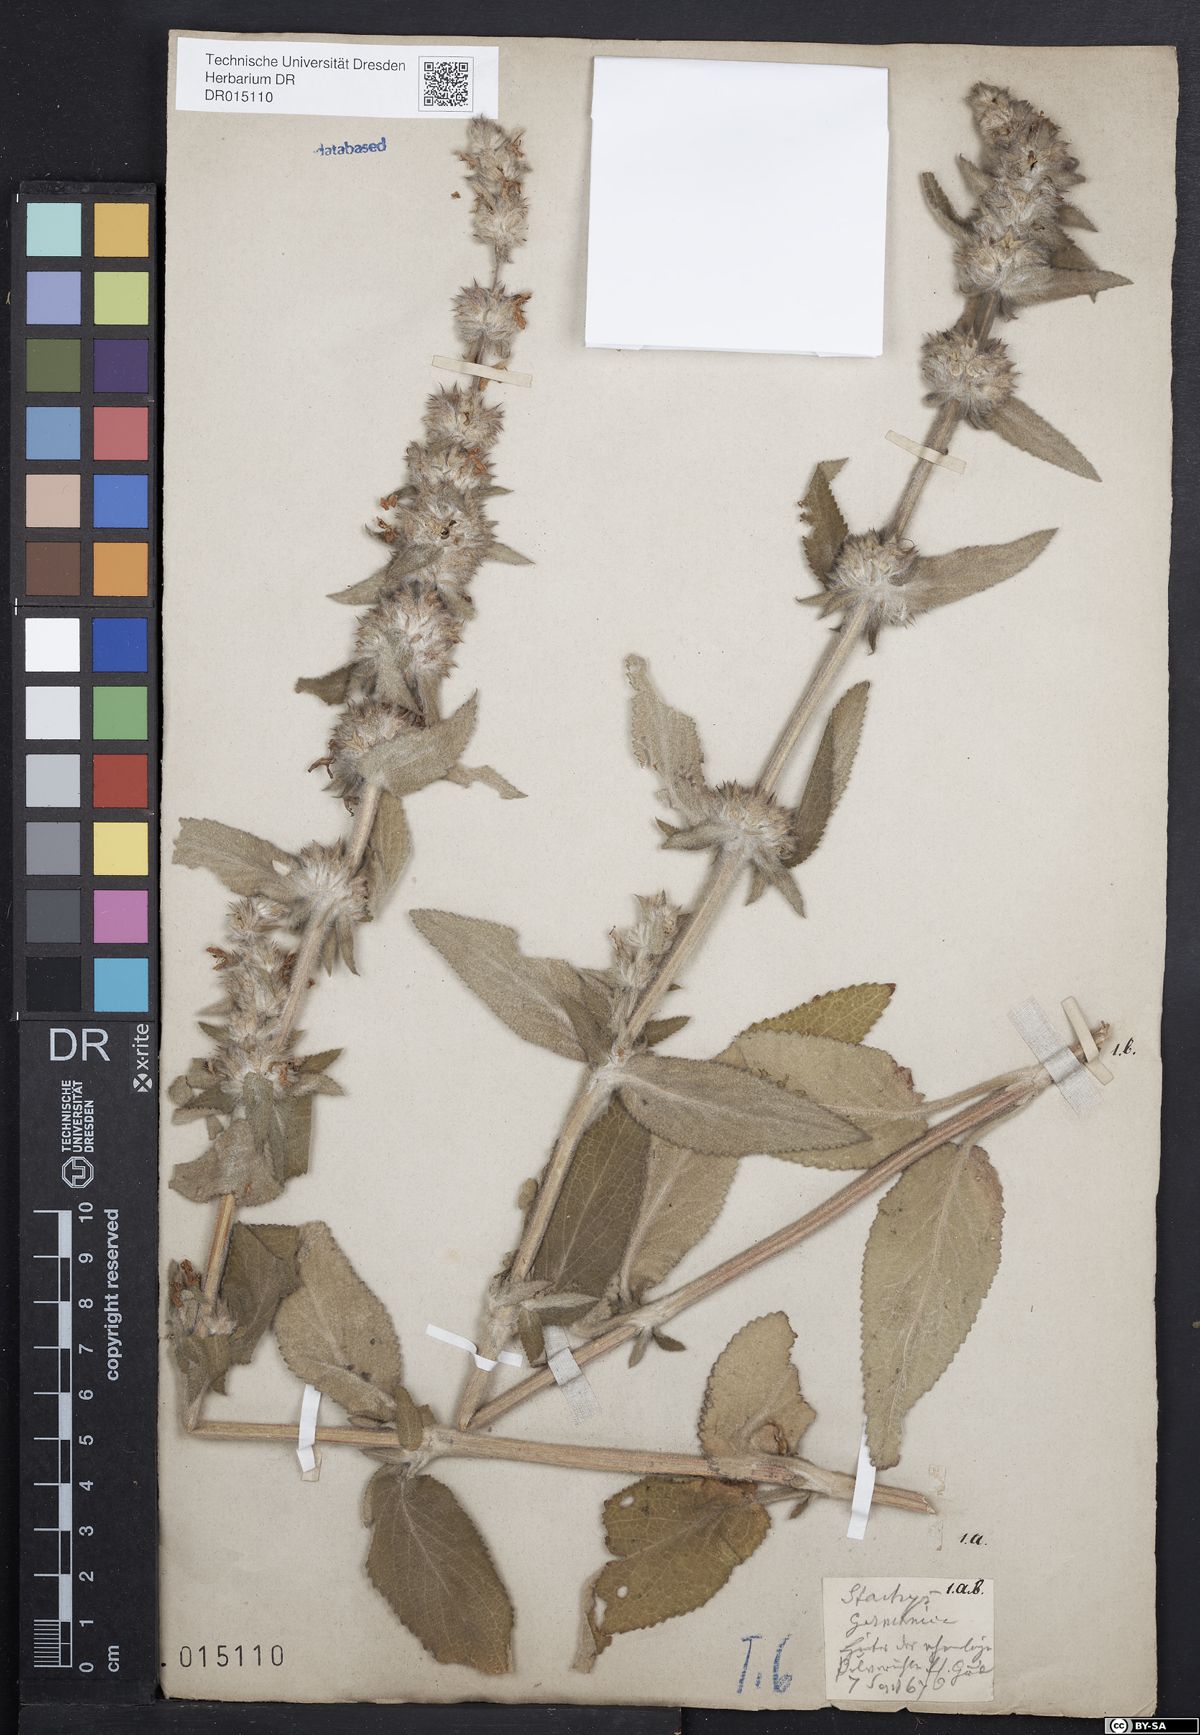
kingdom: Plantae
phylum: Tracheophyta
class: Magnoliopsida
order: Lamiales
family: Lamiaceae
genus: Stachys
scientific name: Stachys germanica
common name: Downy woundwort
